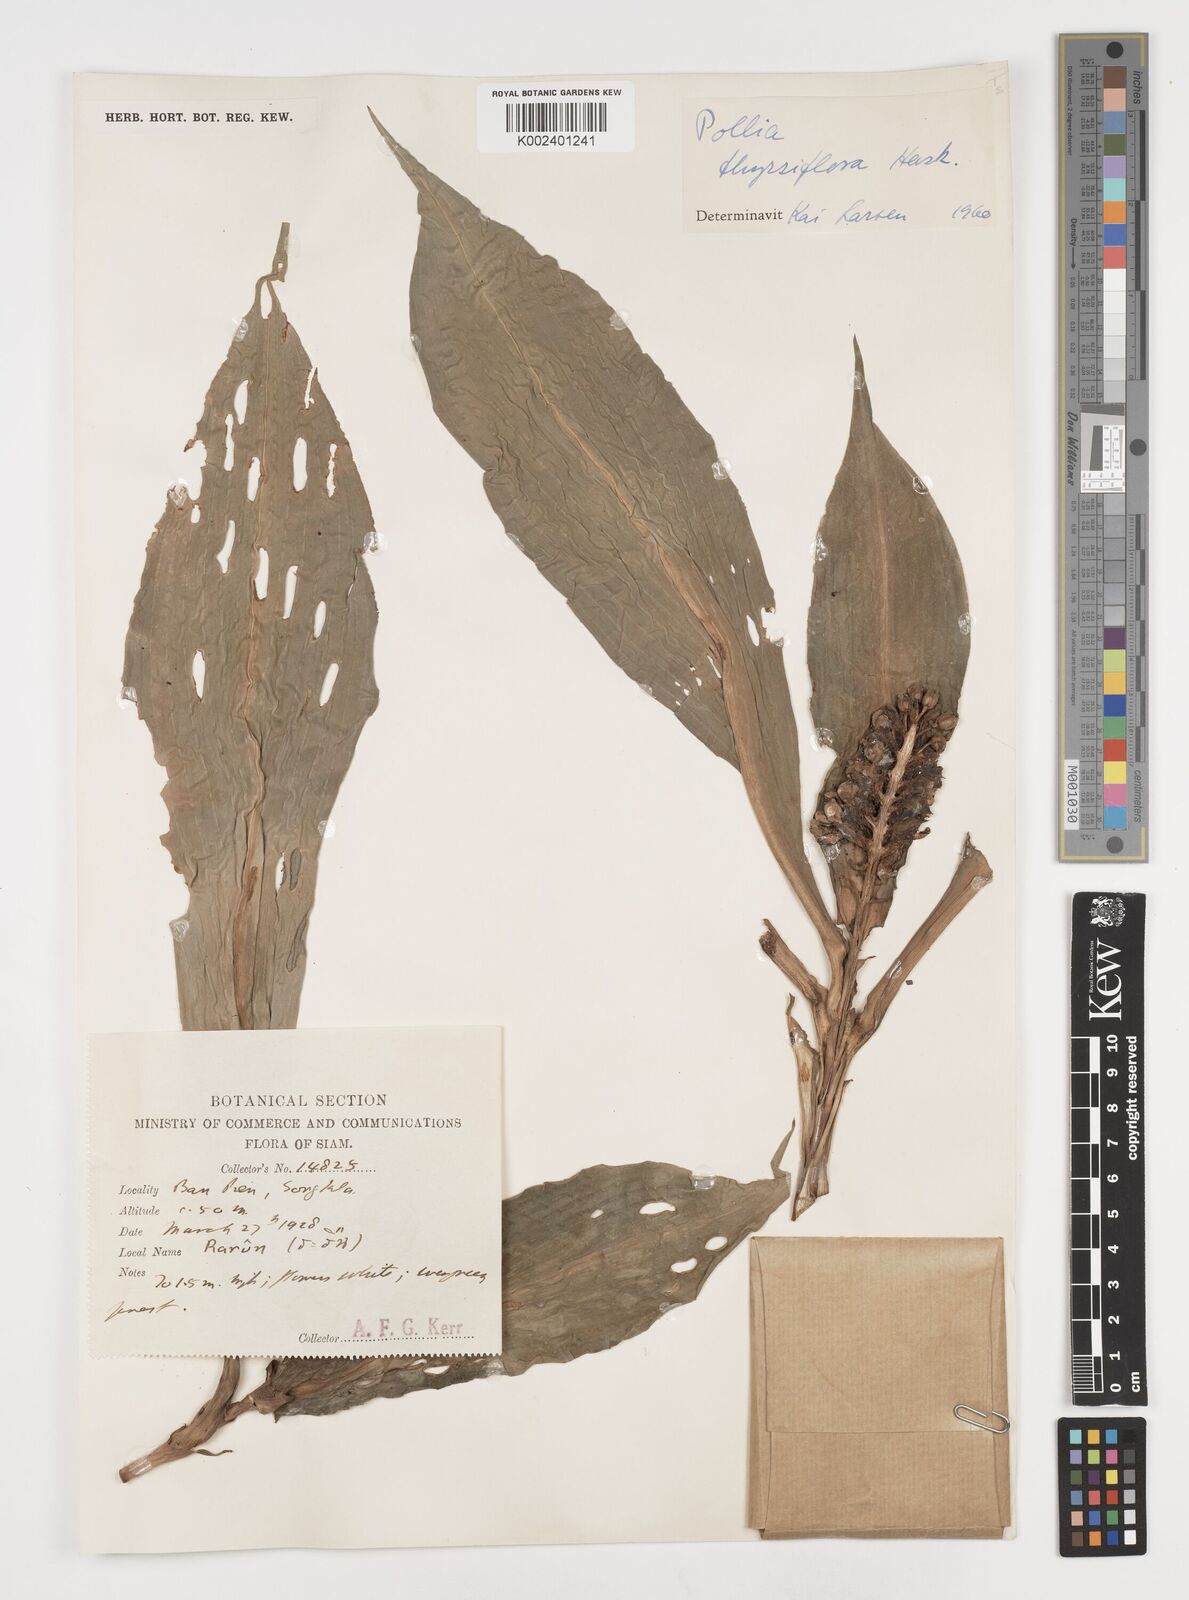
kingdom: Plantae
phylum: Tracheophyta
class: Liliopsida
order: Commelinales
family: Commelinaceae
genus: Pollia
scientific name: Pollia thyrsiflora
